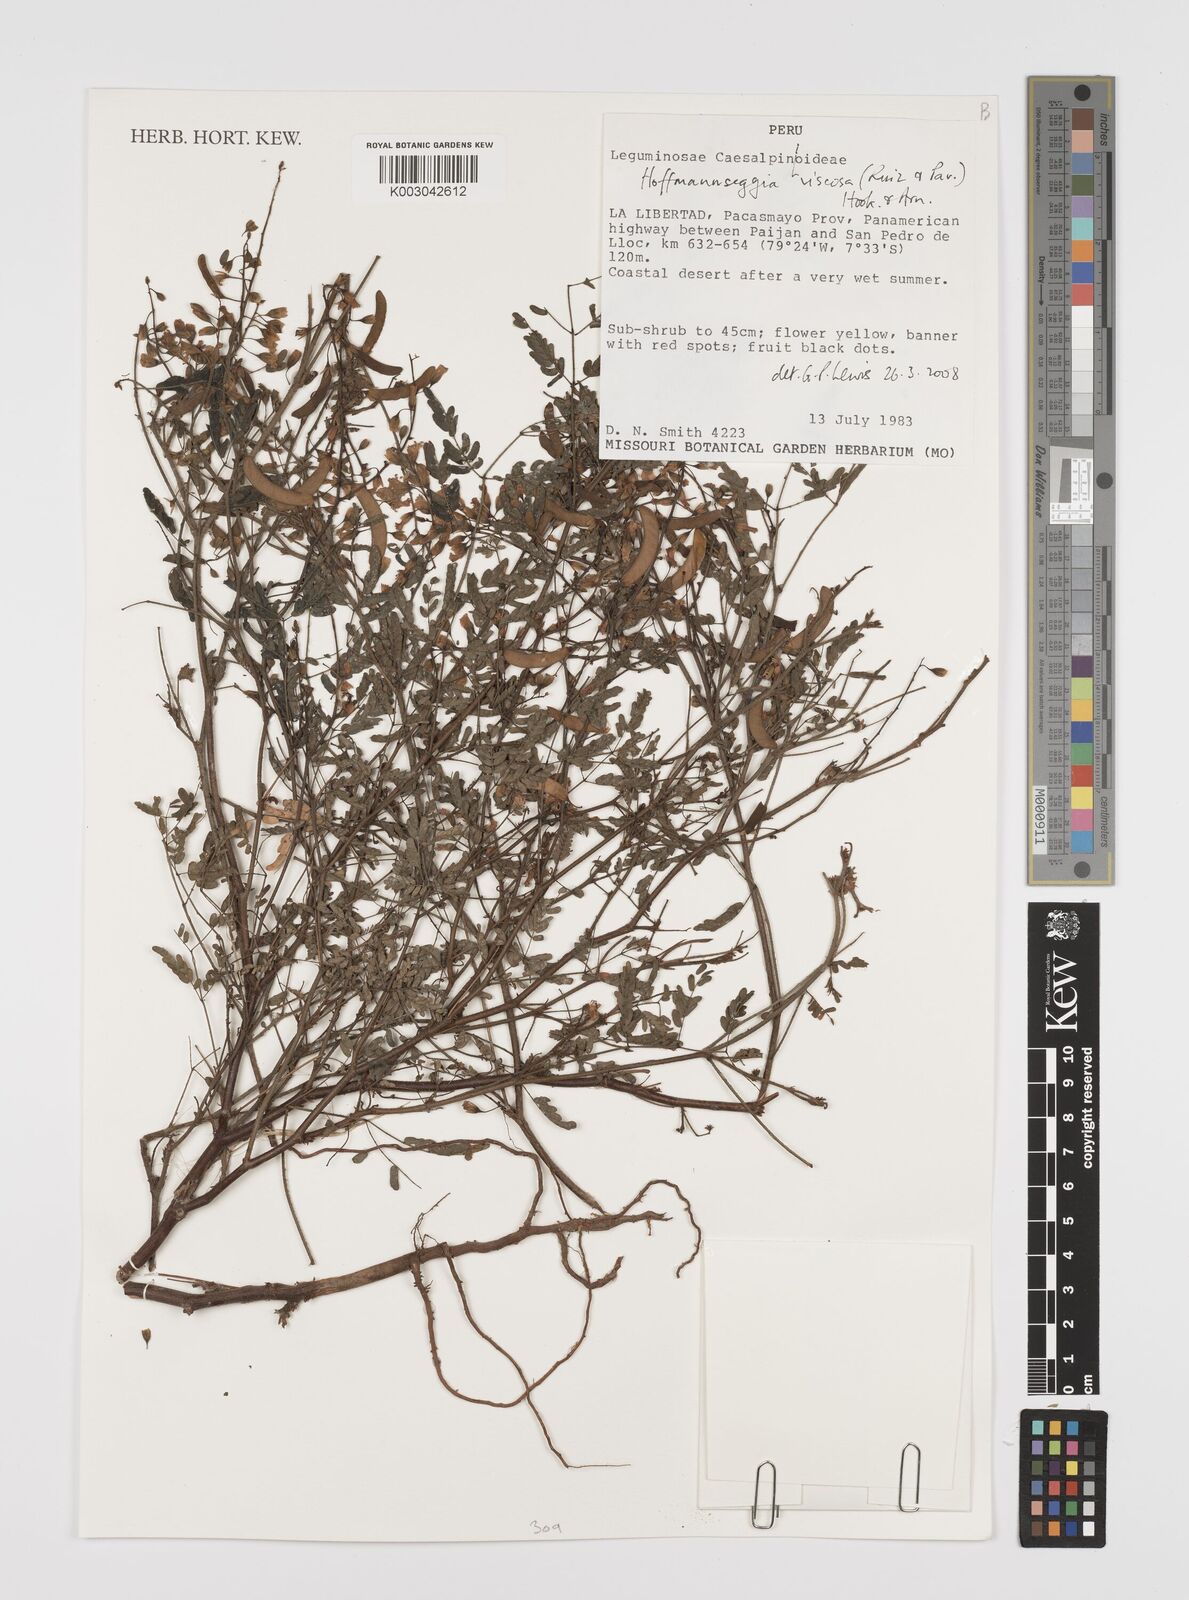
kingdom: Plantae
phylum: Tracheophyta
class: Magnoliopsida
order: Fabales
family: Fabaceae
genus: Hoffmannseggia
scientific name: Hoffmannseggia viscosa
